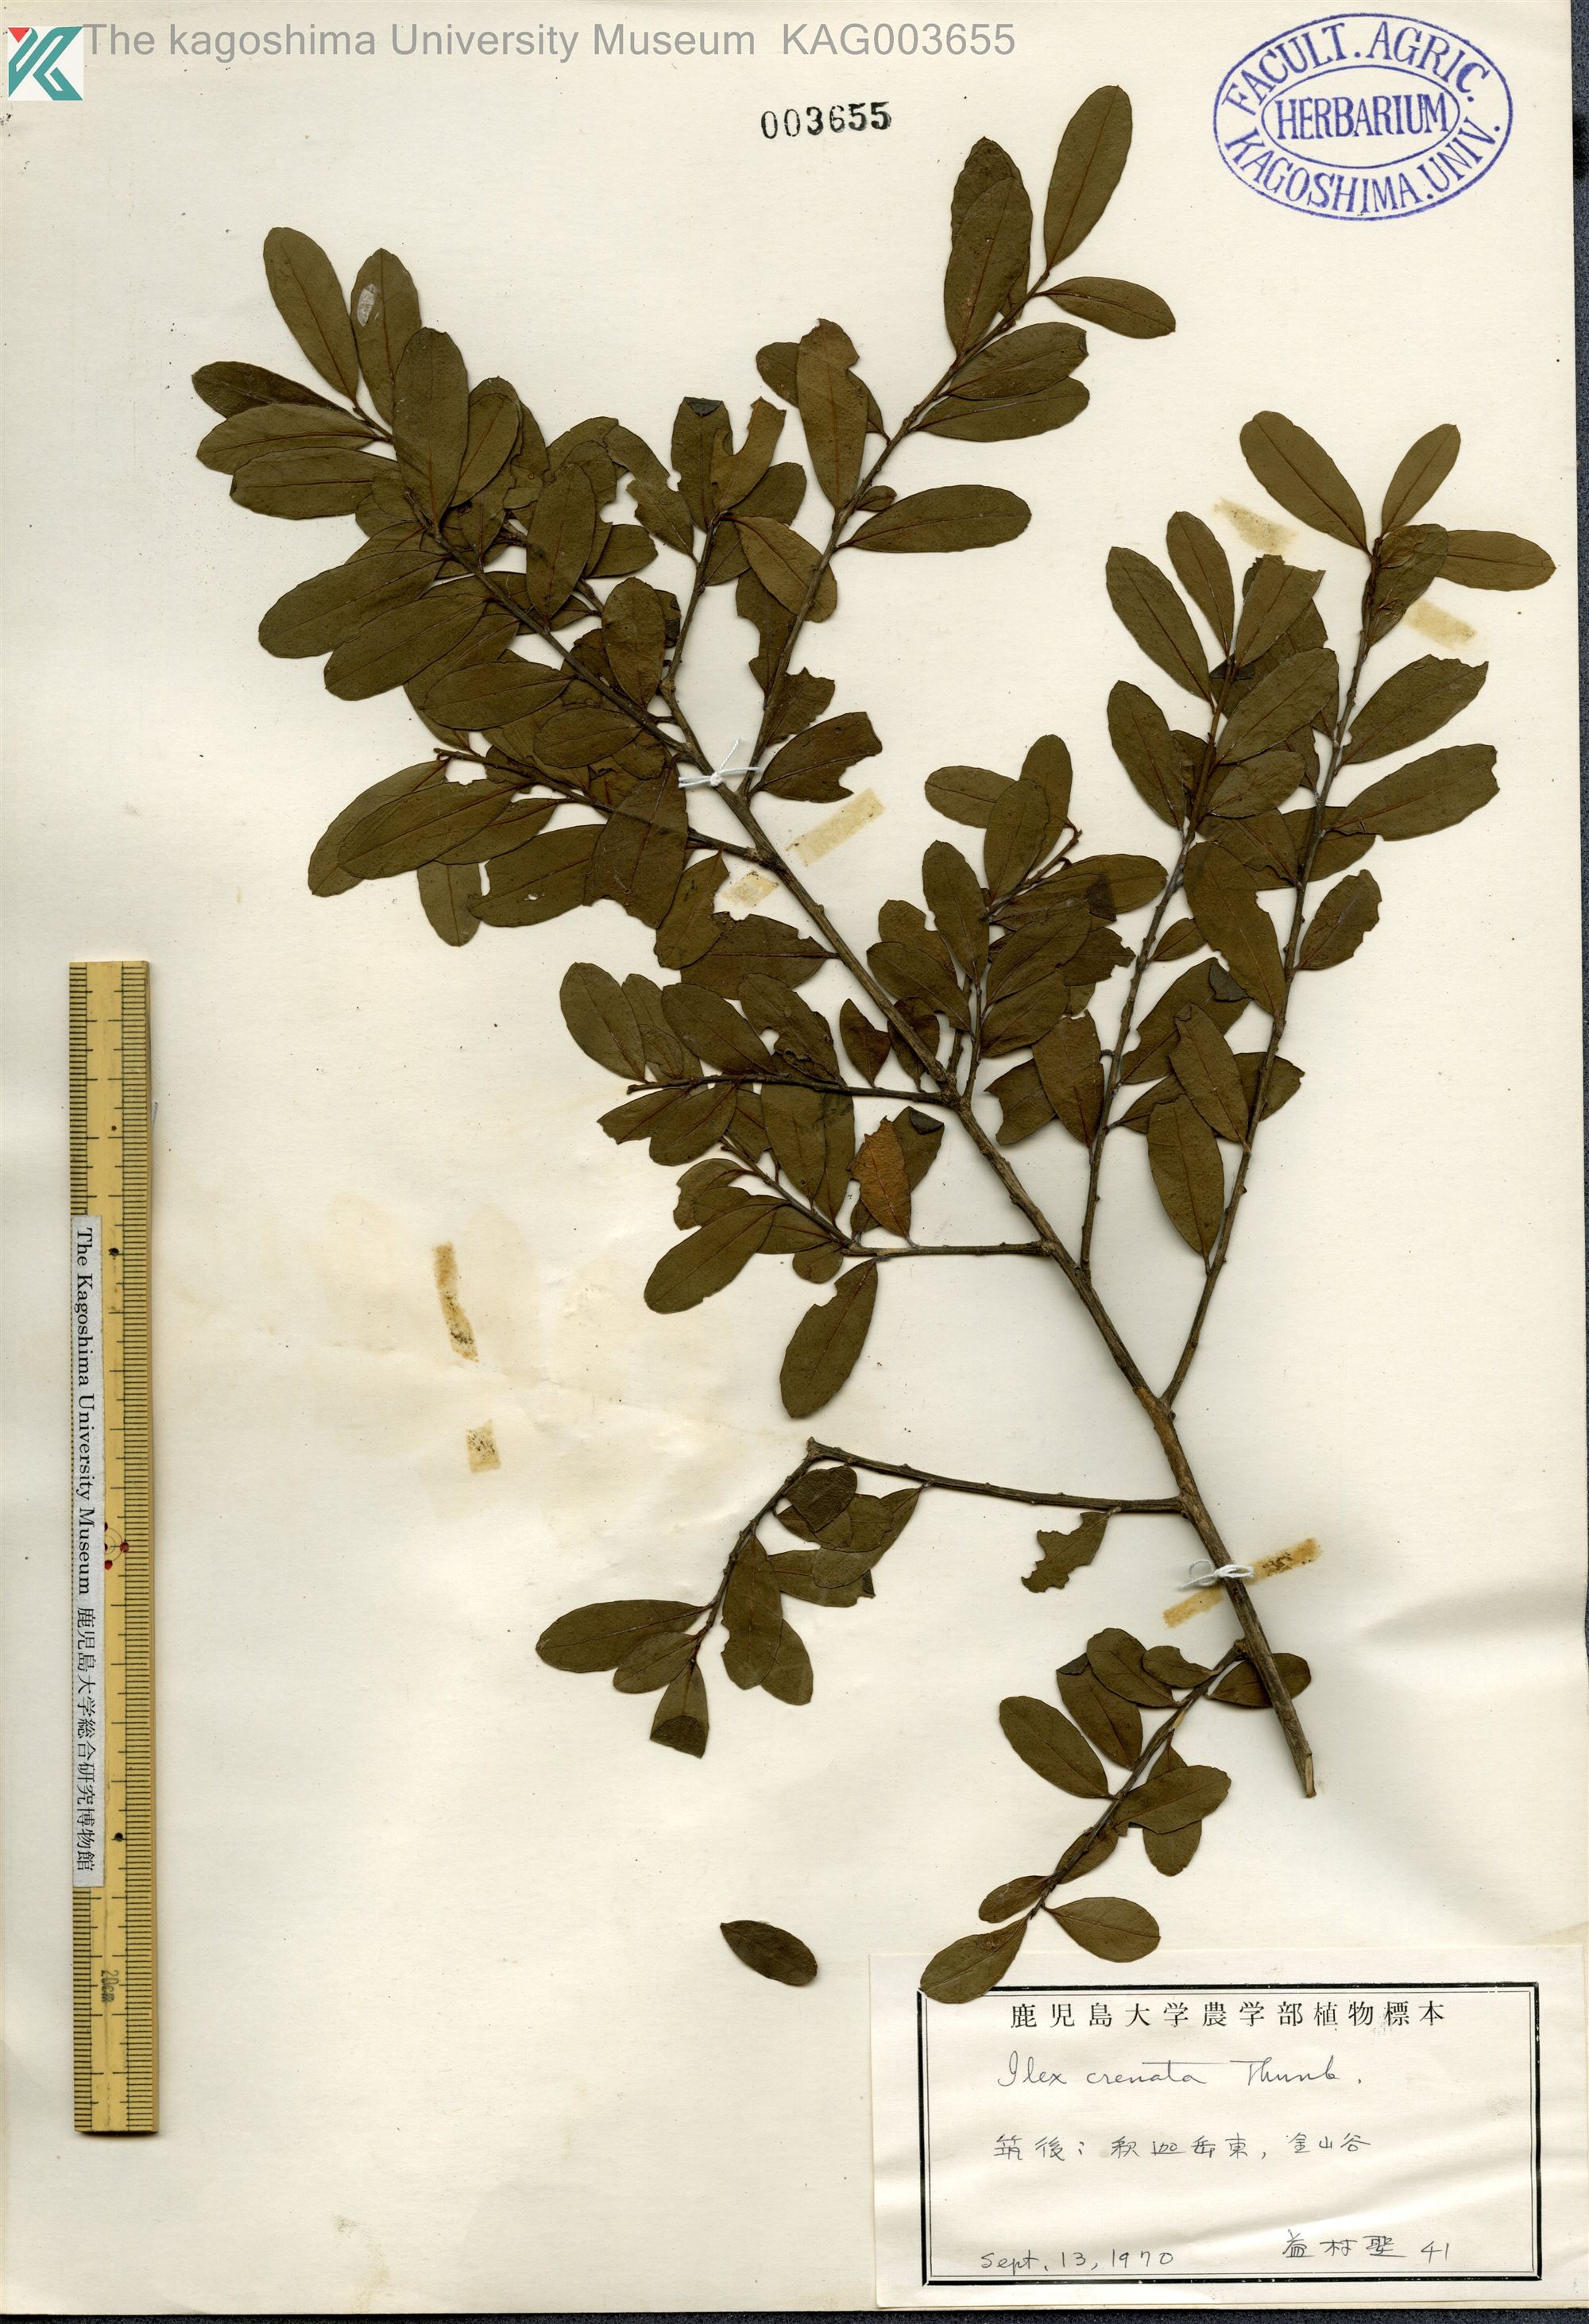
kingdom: Plantae
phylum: Tracheophyta
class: Magnoliopsida
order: Aquifoliales
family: Aquifoliaceae
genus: Ilex
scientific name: Ilex crenata
